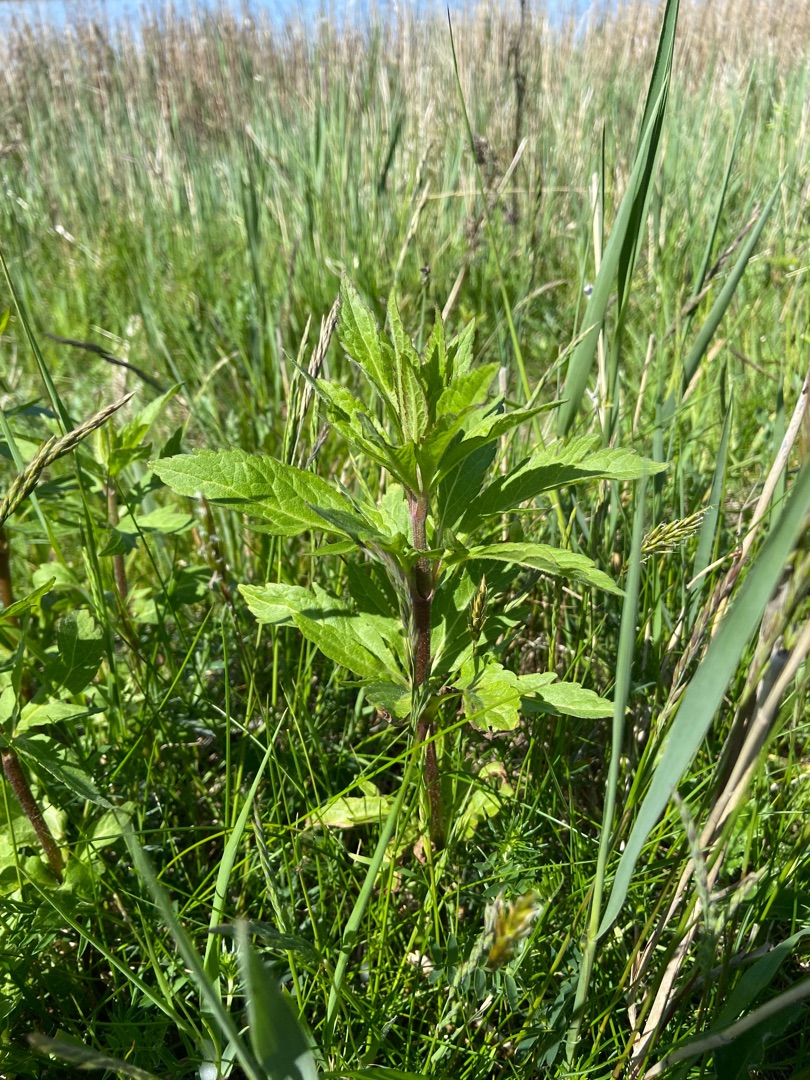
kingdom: Plantae
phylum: Tracheophyta
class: Magnoliopsida
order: Asterales
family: Asteraceae
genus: Eupatorium
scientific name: Eupatorium cannabinum
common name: Hjortetrøst
